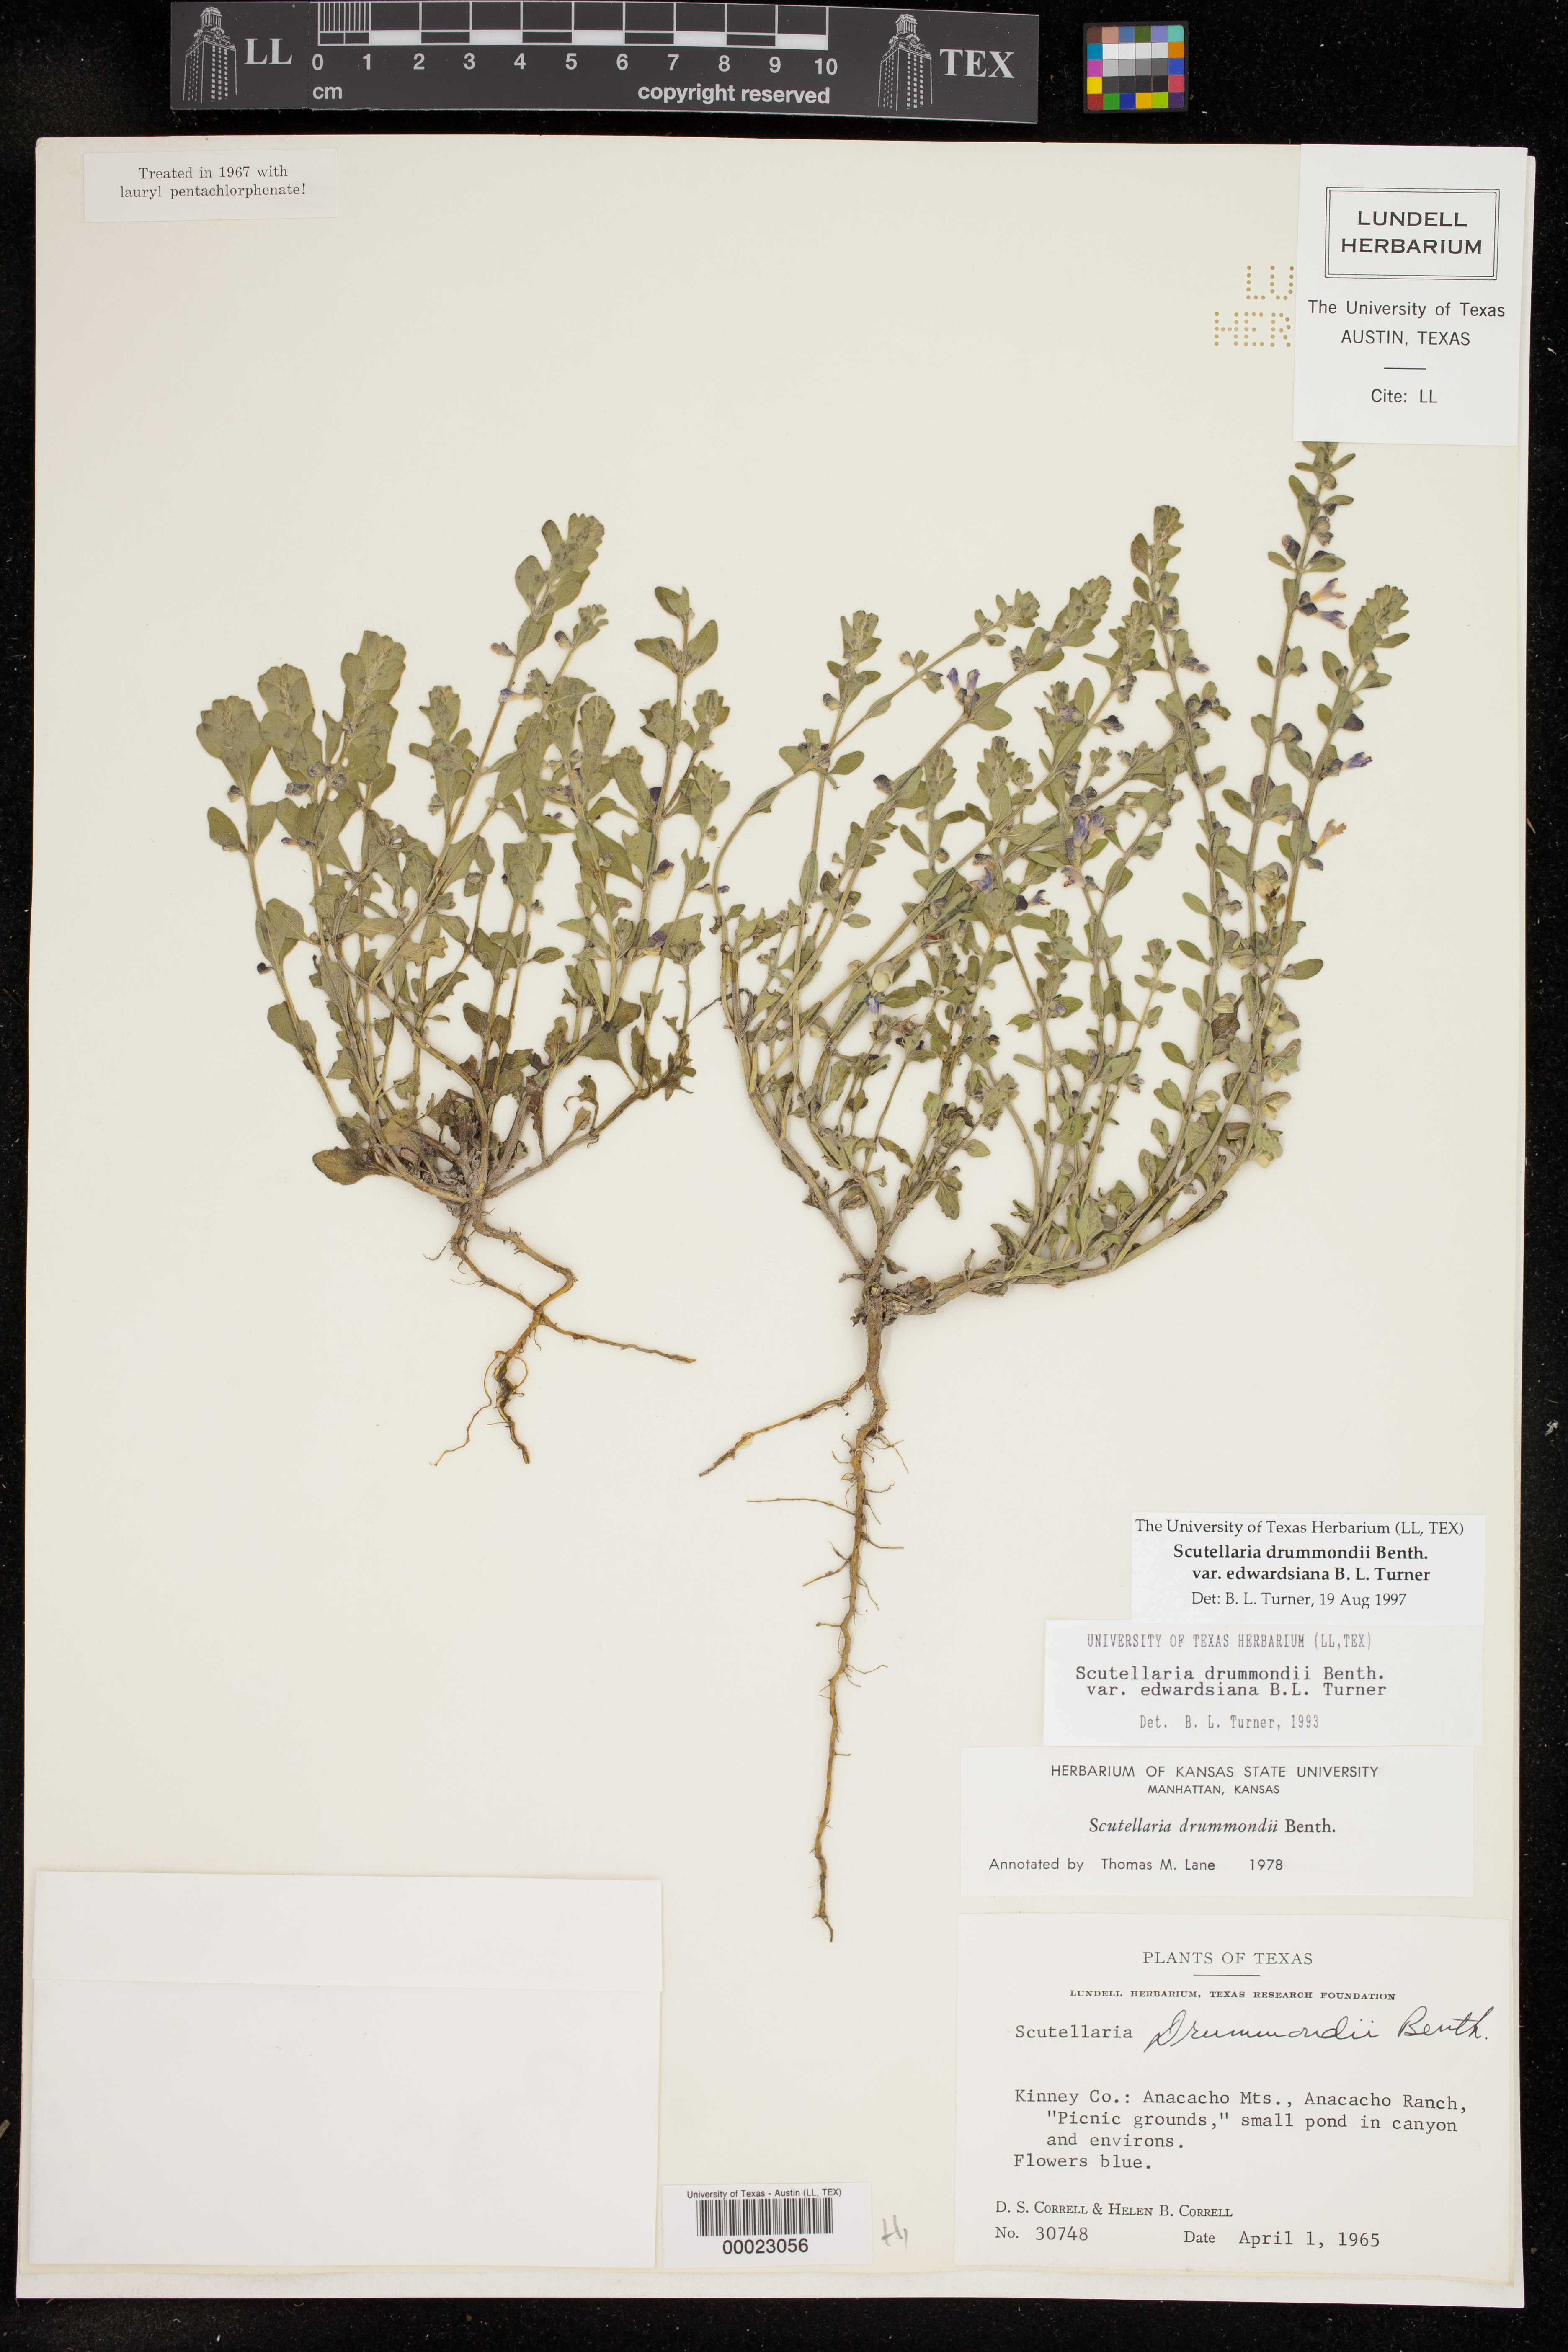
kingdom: Plantae
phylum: Tracheophyta
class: Magnoliopsida
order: Lamiales
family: Lamiaceae
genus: Scutellaria
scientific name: Scutellaria drummondii
